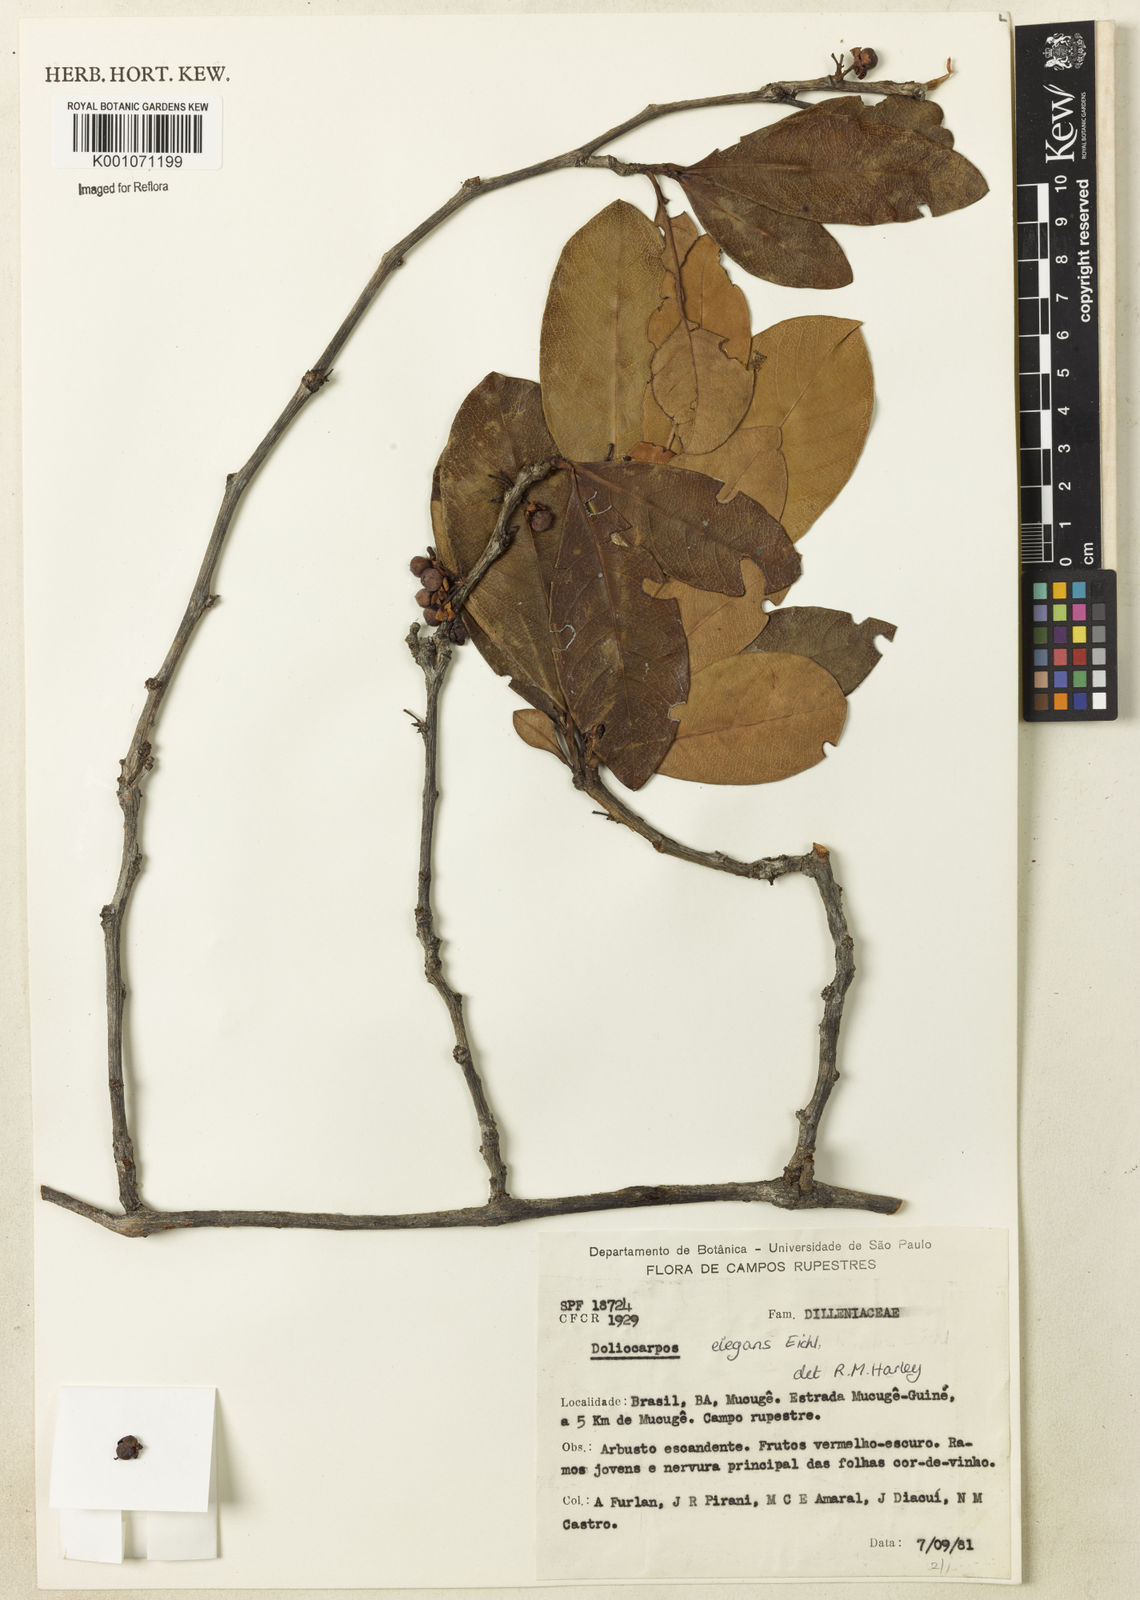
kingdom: Plantae
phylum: Tracheophyta
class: Magnoliopsida
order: Dilleniales
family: Dilleniaceae
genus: Doliocarpus
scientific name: Doliocarpus elegans
